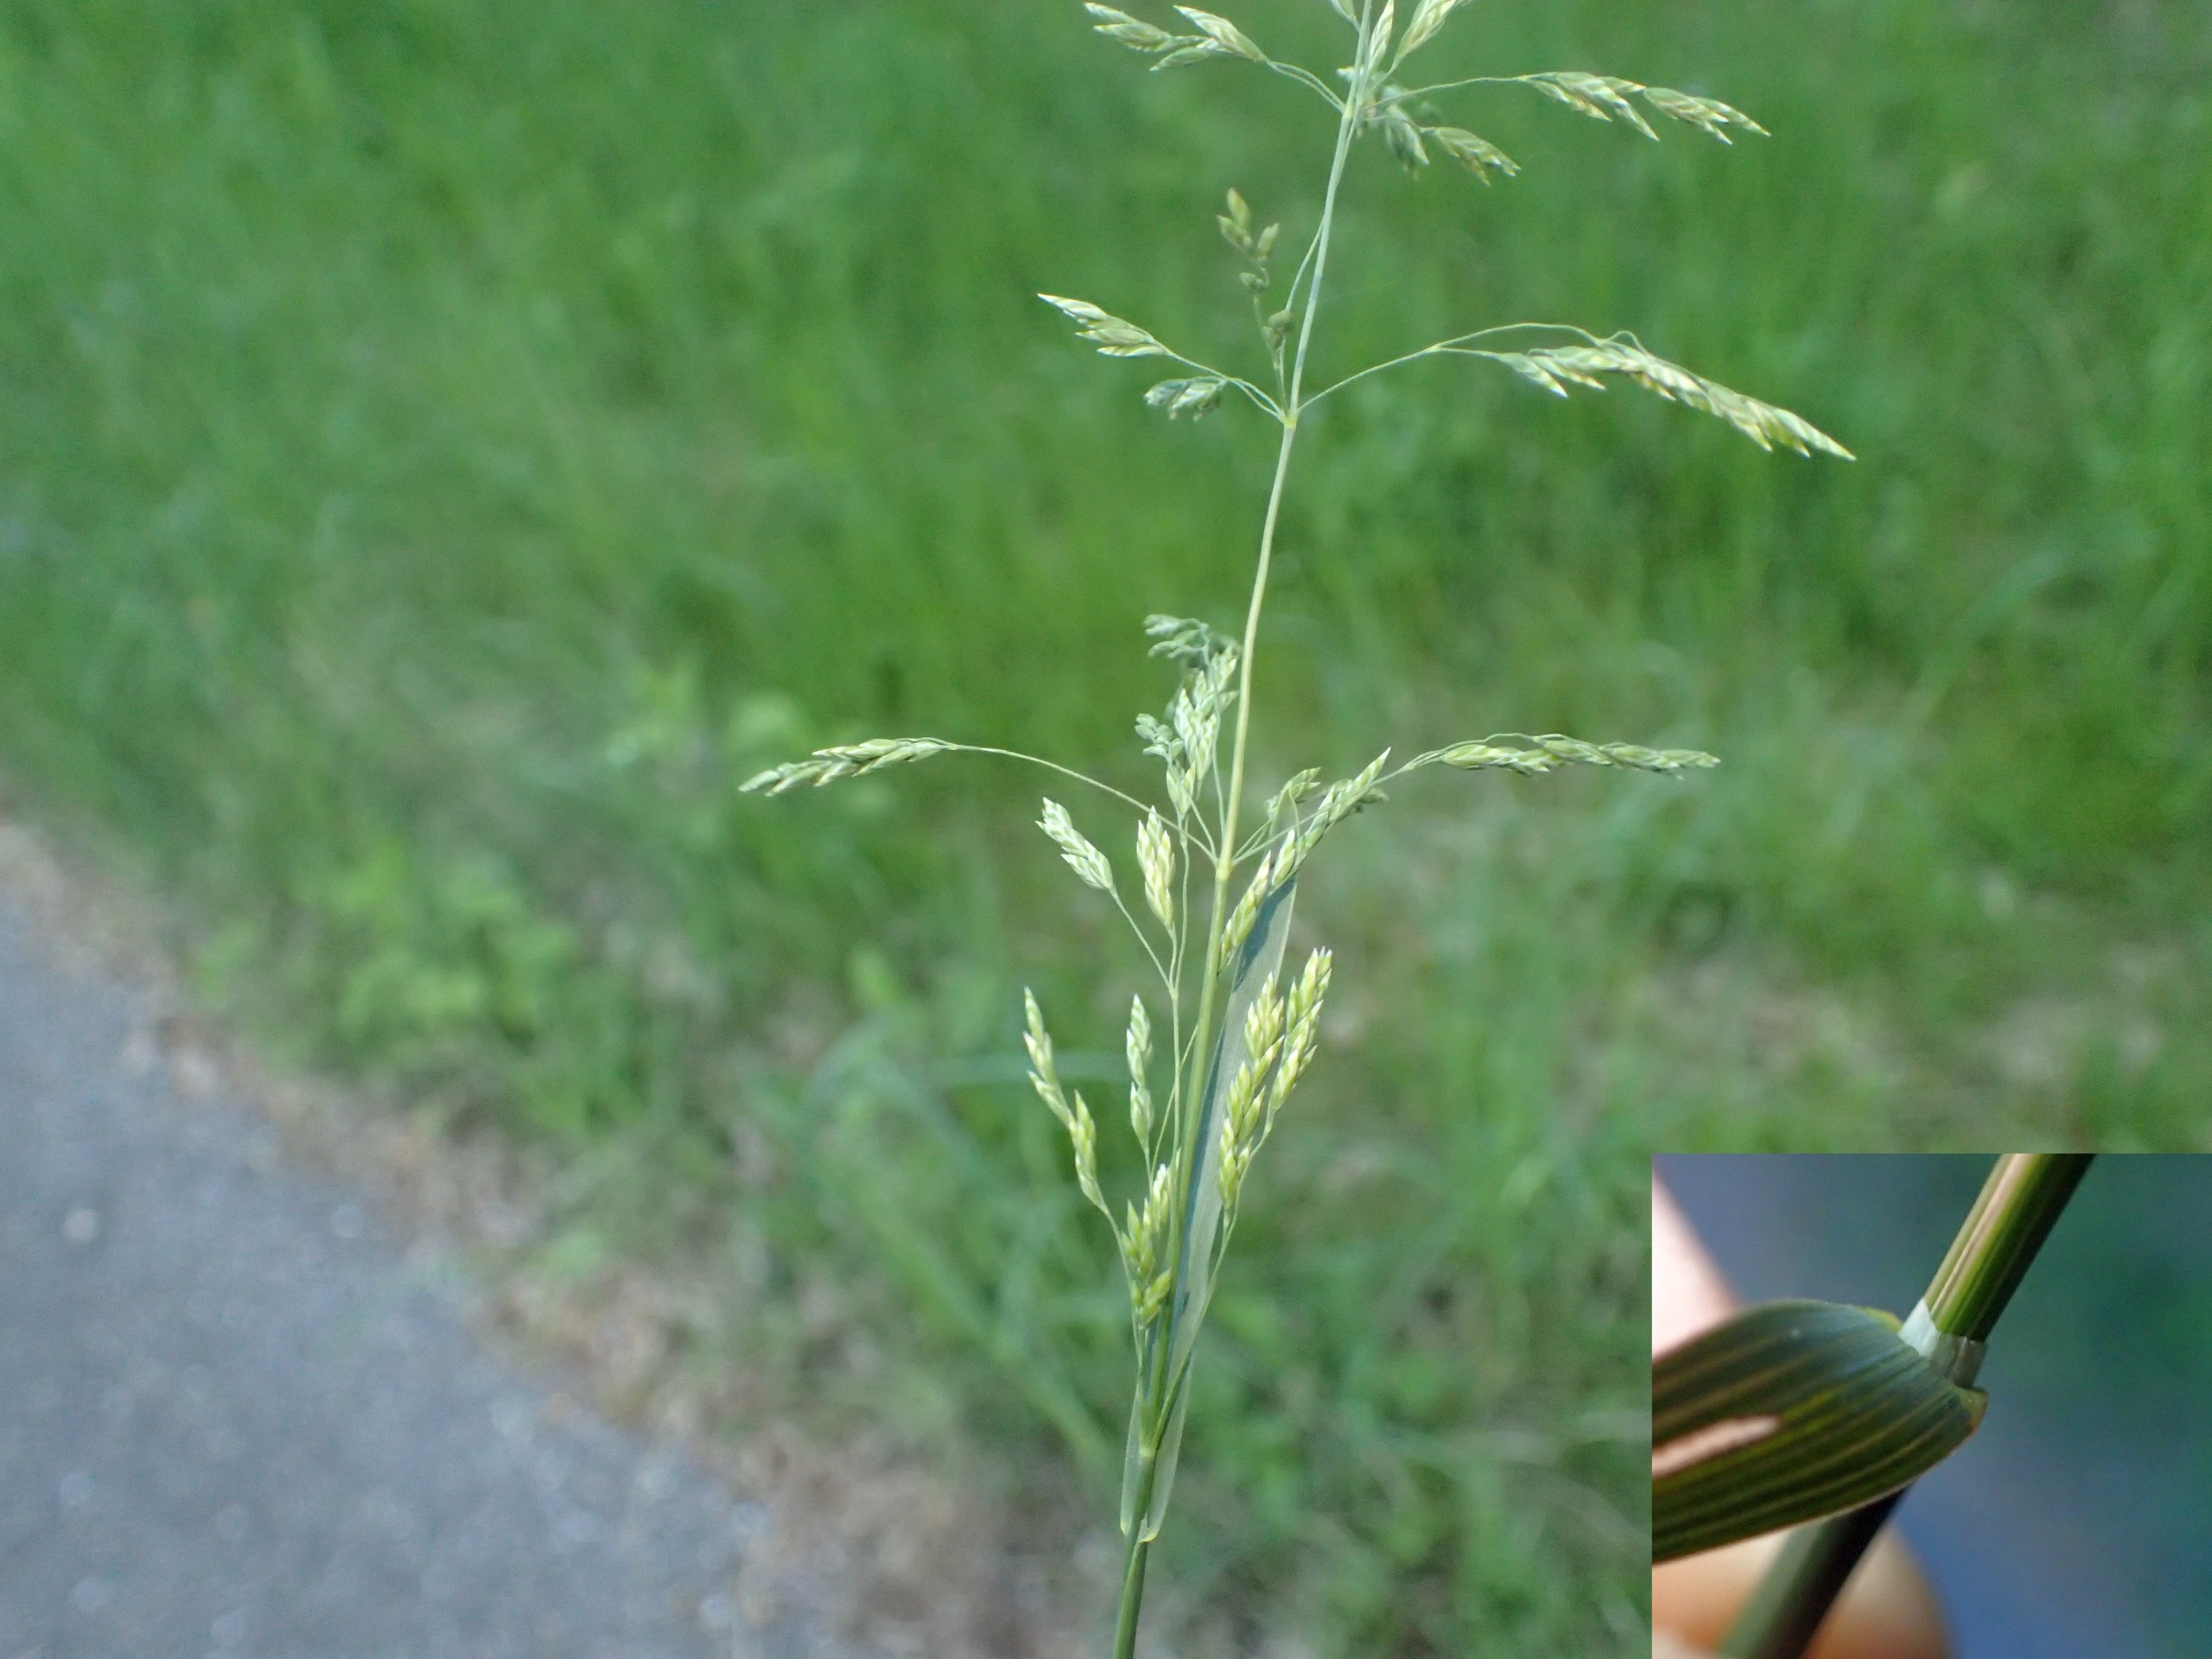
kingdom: Plantae
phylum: Tracheophyta
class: Liliopsida
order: Poales
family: Poaceae
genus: Poa
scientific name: Poa pratensis
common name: Eng-rapgræs
